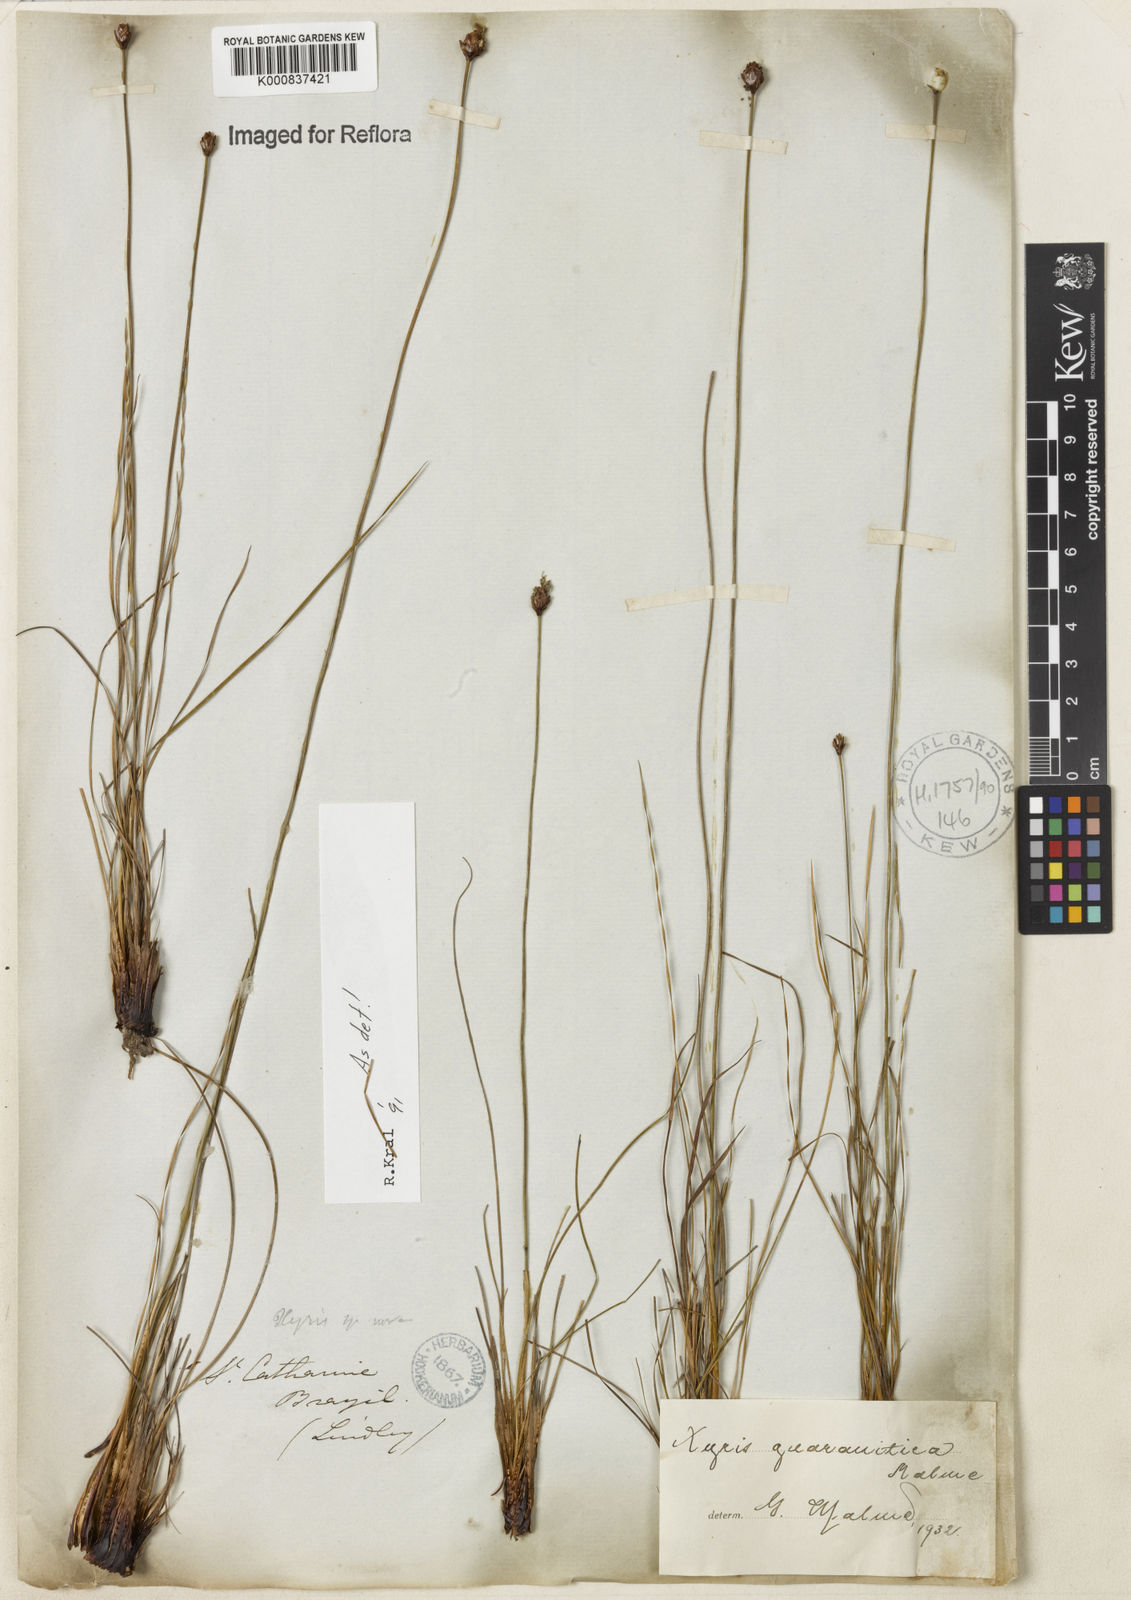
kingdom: Plantae
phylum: Tracheophyta
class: Liliopsida
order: Poales
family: Xyridaceae
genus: Xyris
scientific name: Xyris guaranitica
